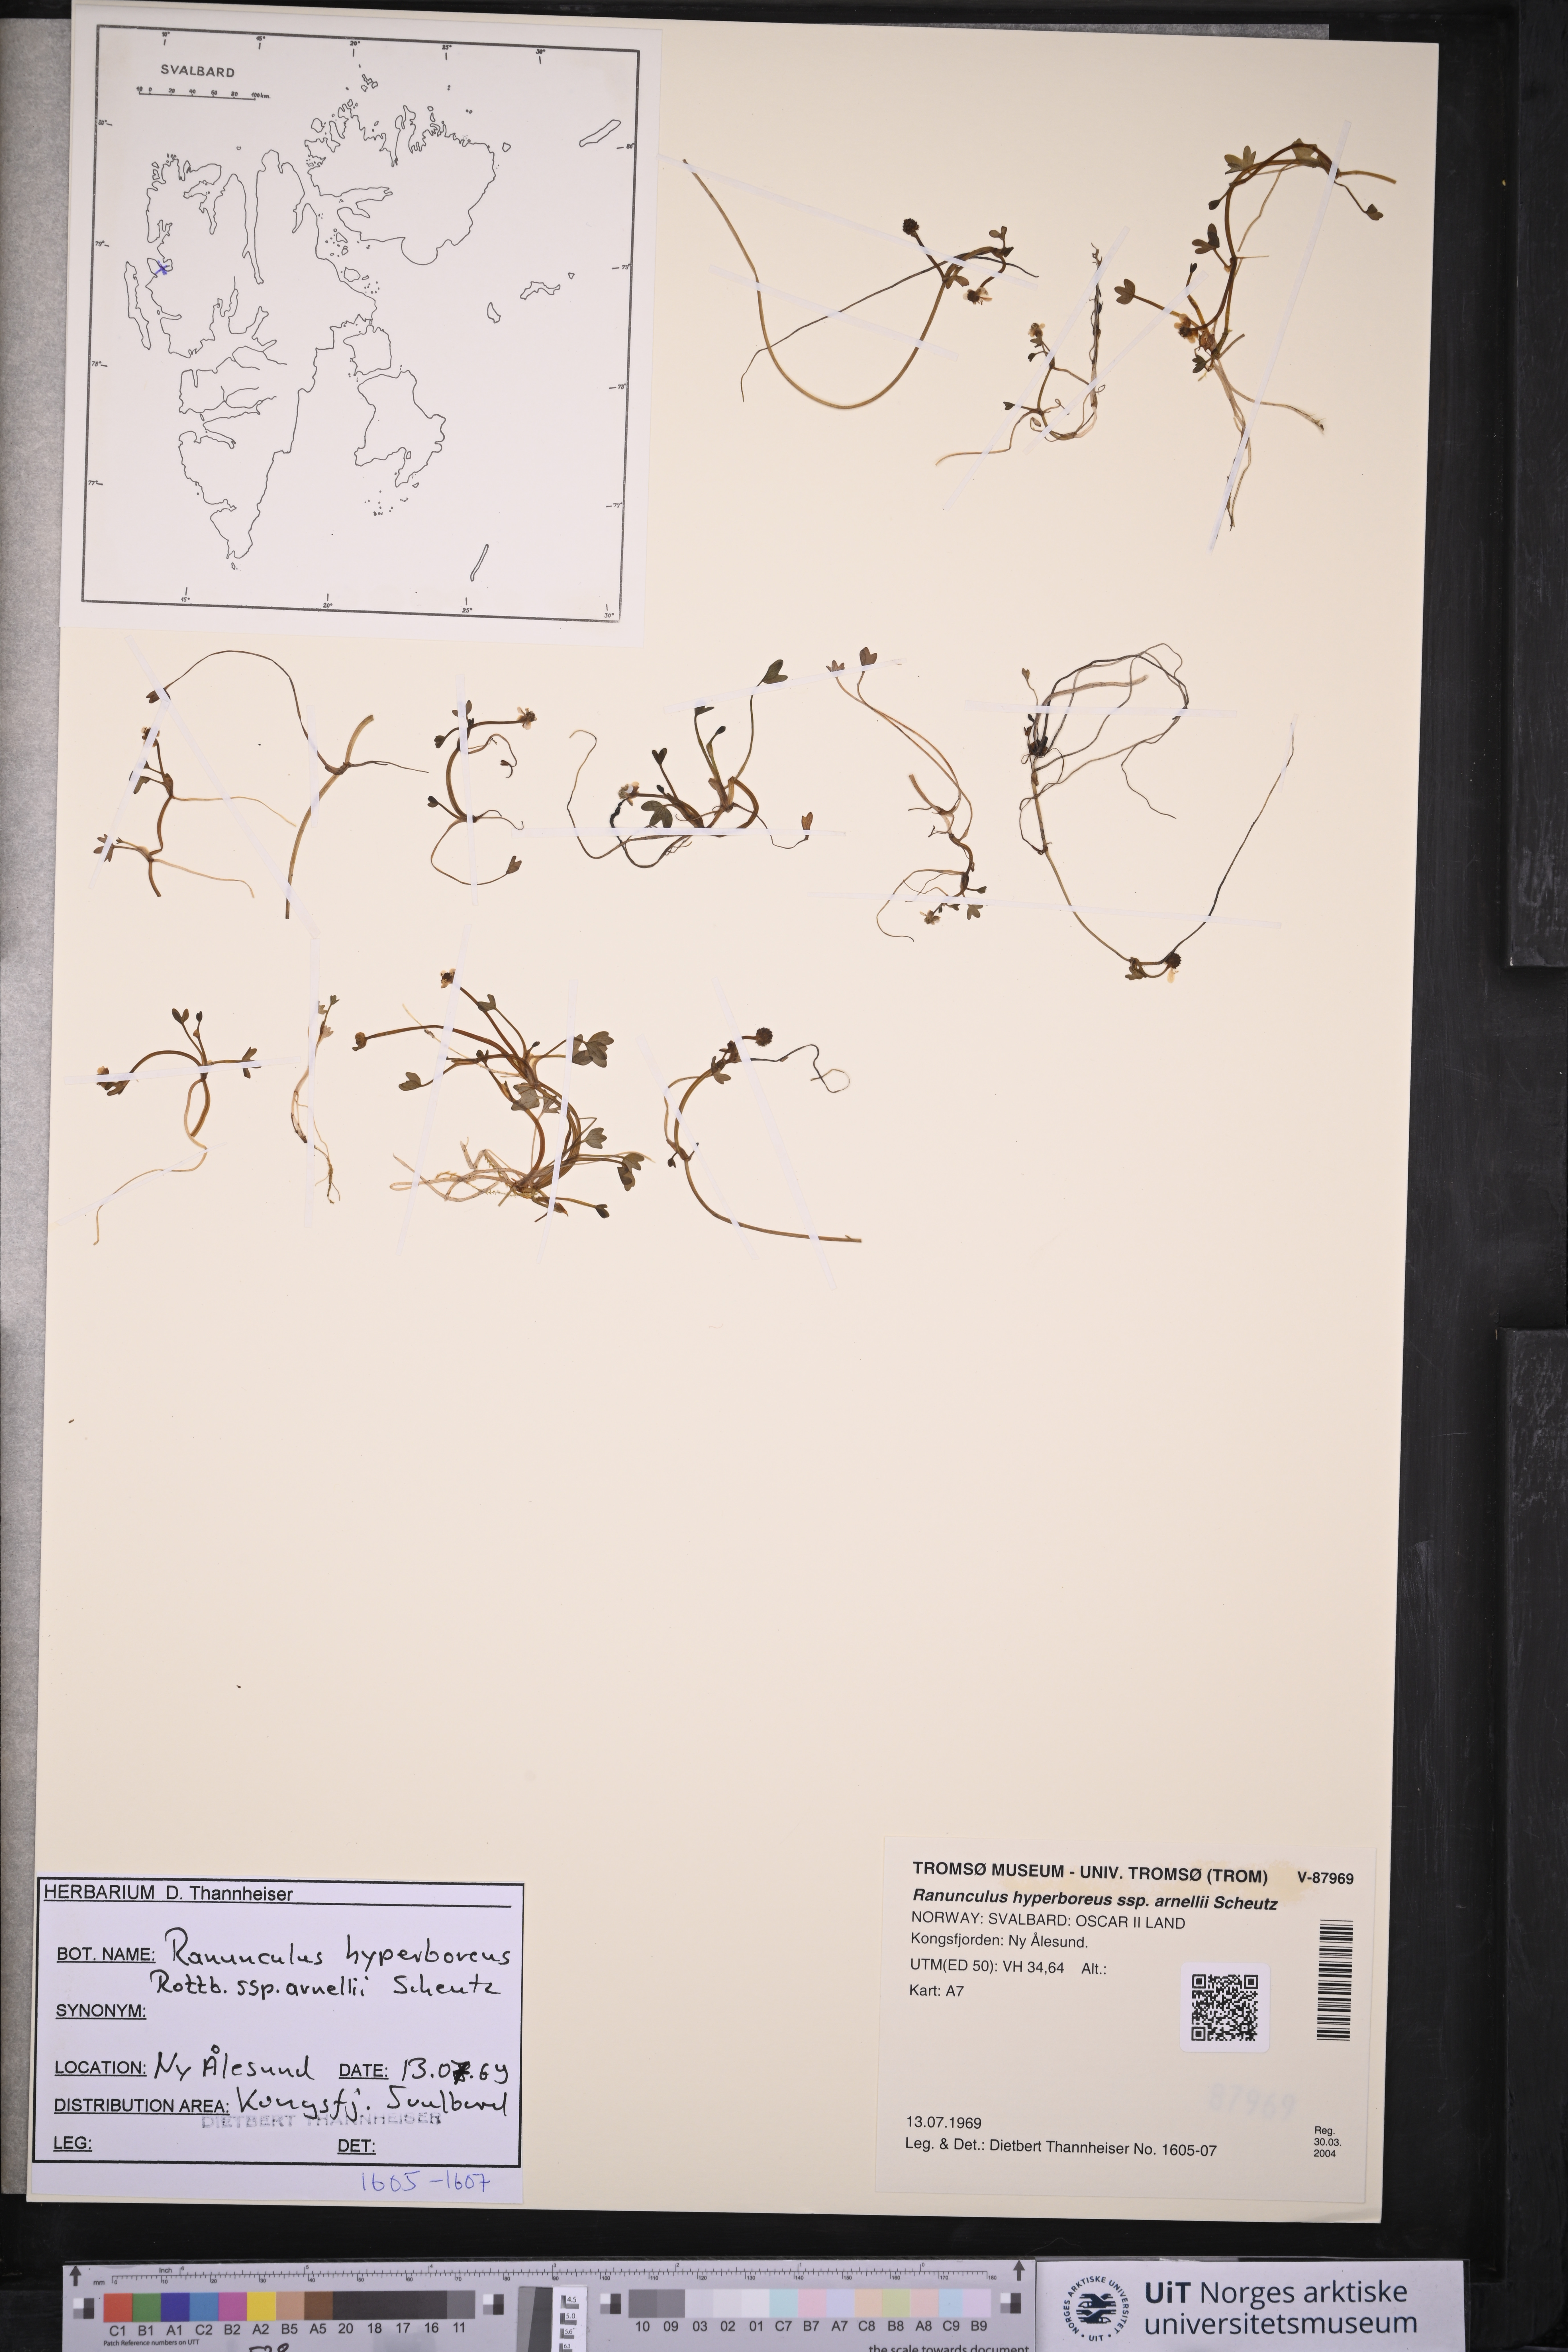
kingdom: Plantae
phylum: Tracheophyta
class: Magnoliopsida
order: Ranunculales
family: Ranunculaceae
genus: Ranunculus
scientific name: Ranunculus hyperboreus
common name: Arctic buttercup
